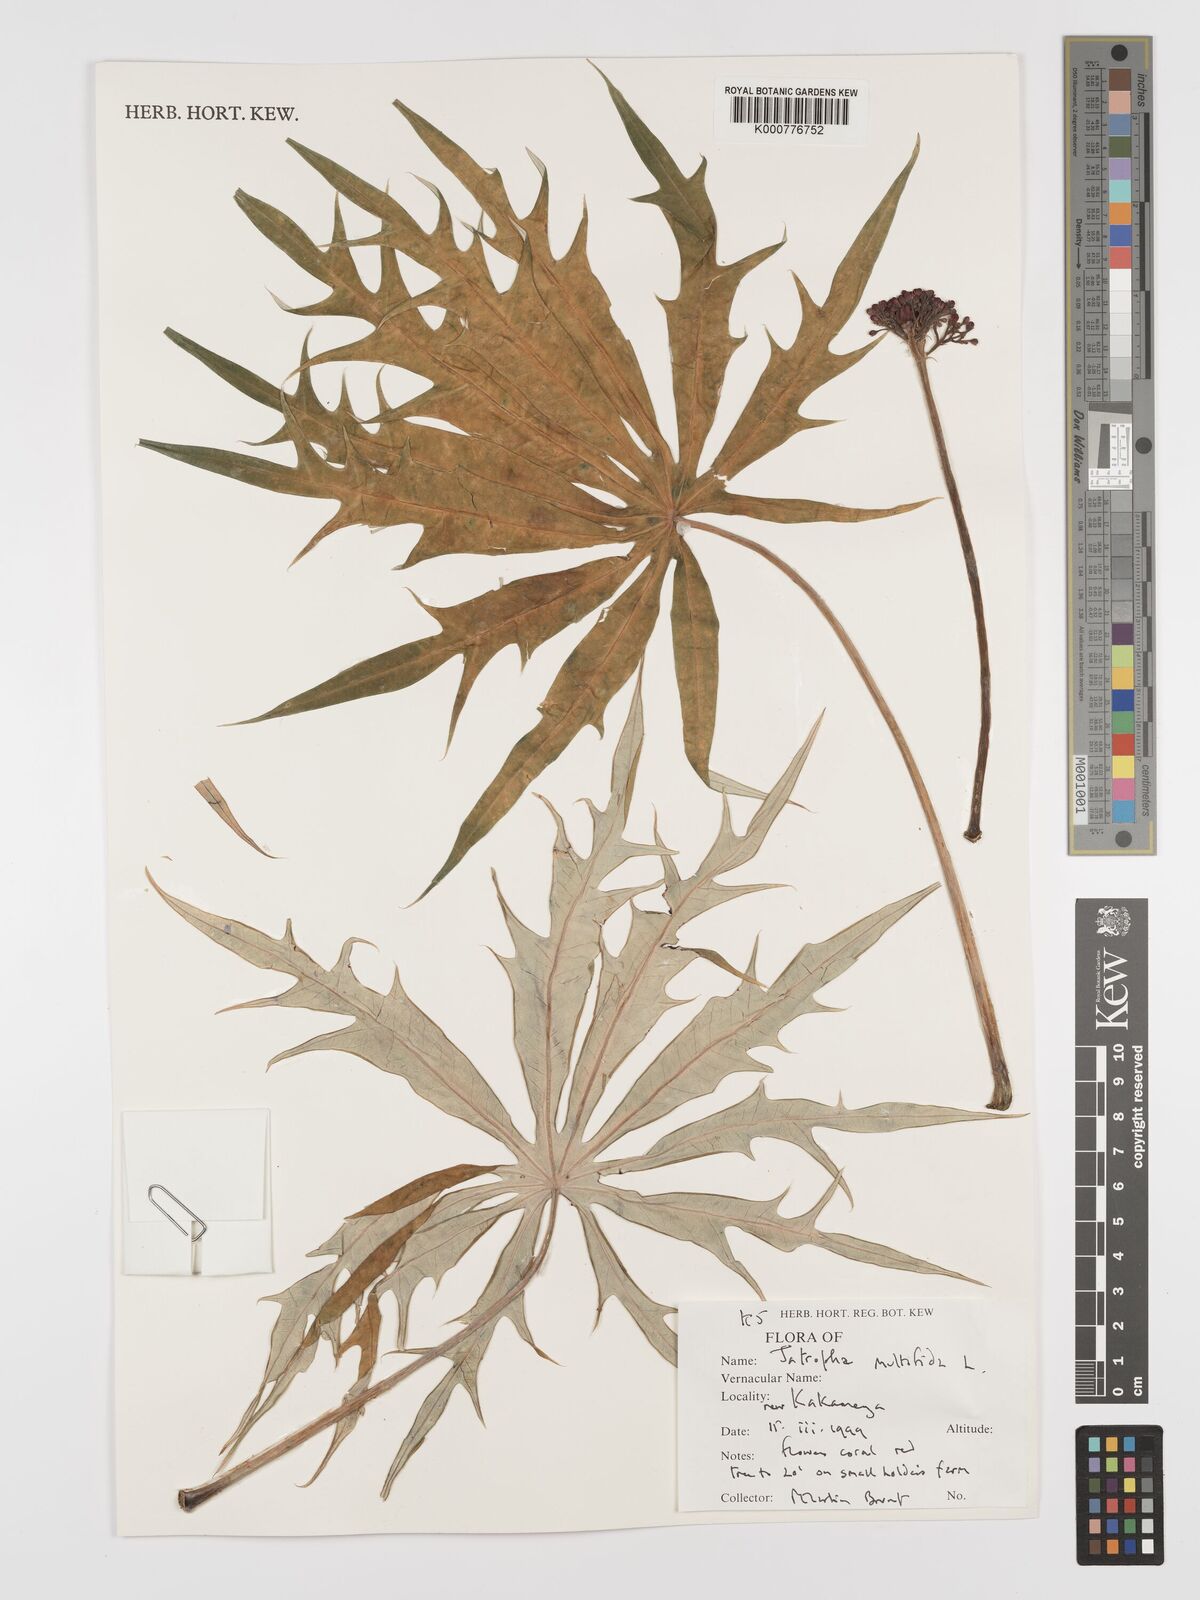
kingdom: Plantae
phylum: Tracheophyta
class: Magnoliopsida
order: Malpighiales
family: Euphorbiaceae
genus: Jatropha
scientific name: Jatropha multifida
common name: Coralbush
